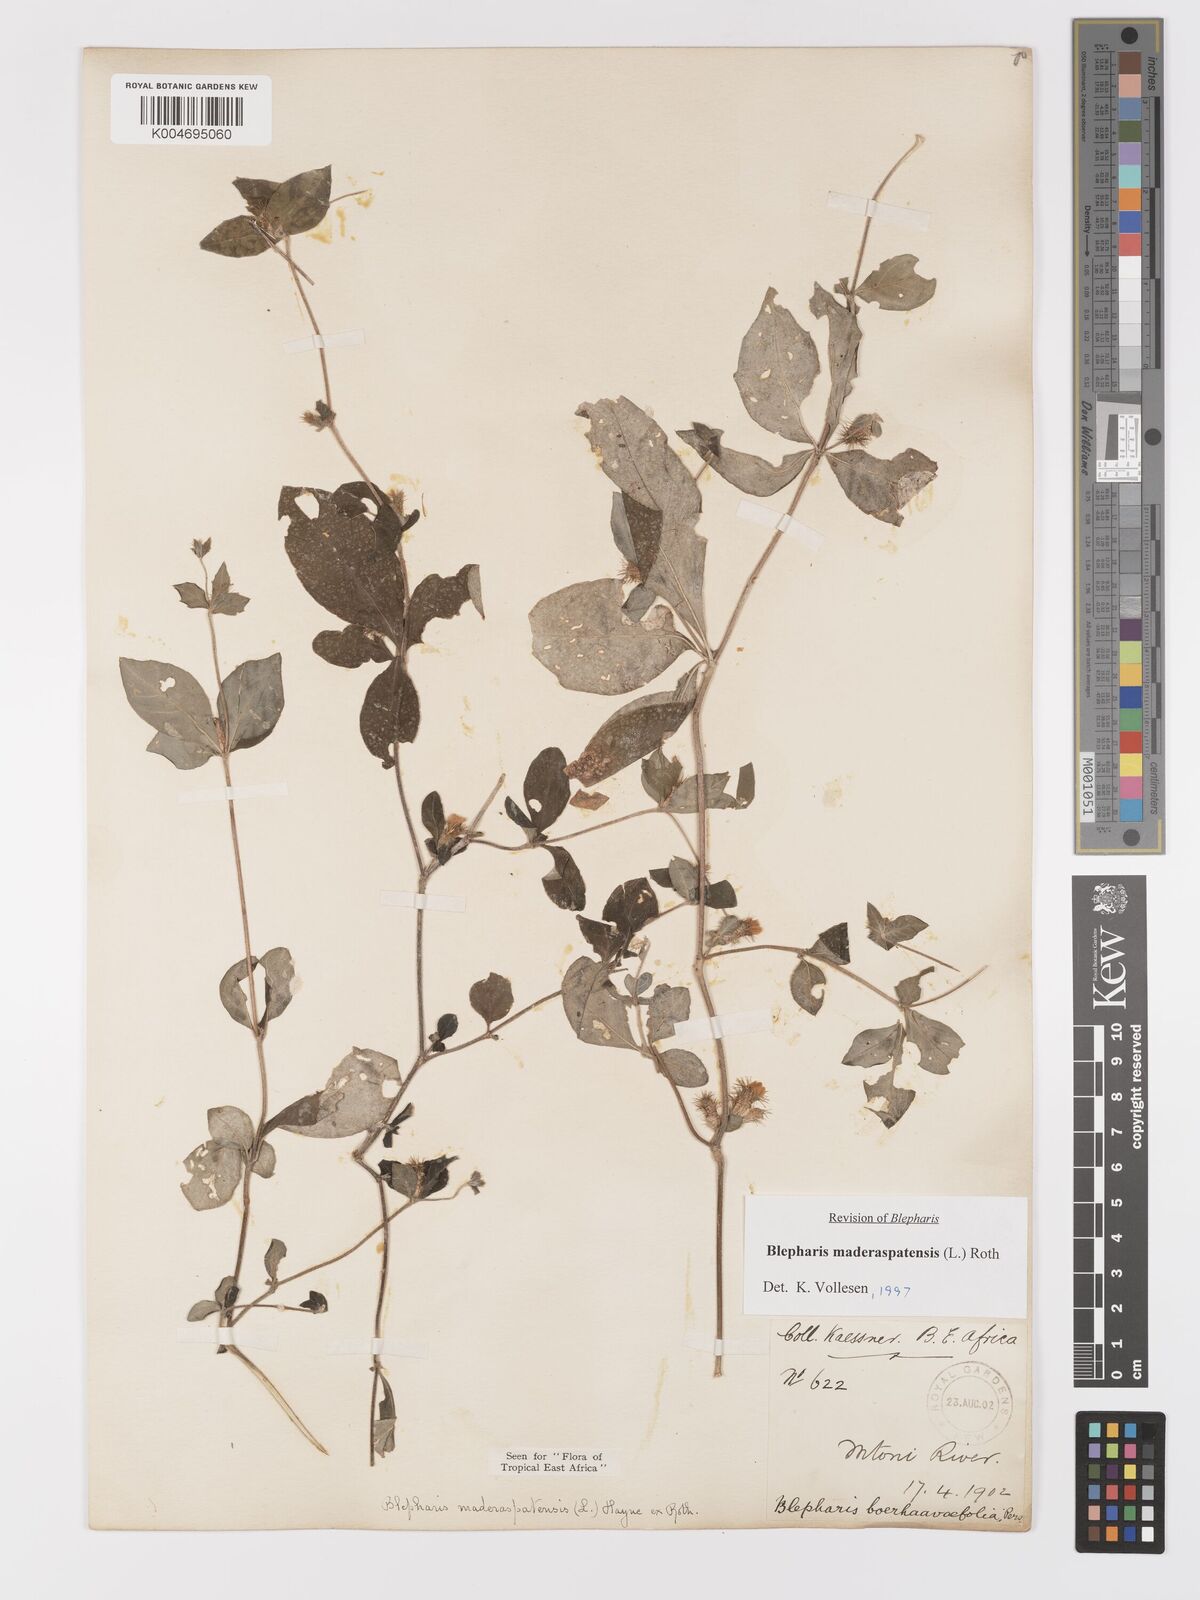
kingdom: Plantae
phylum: Tracheophyta
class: Magnoliopsida
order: Lamiales
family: Acanthaceae
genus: Blepharis
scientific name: Blepharis maderaspatensis
